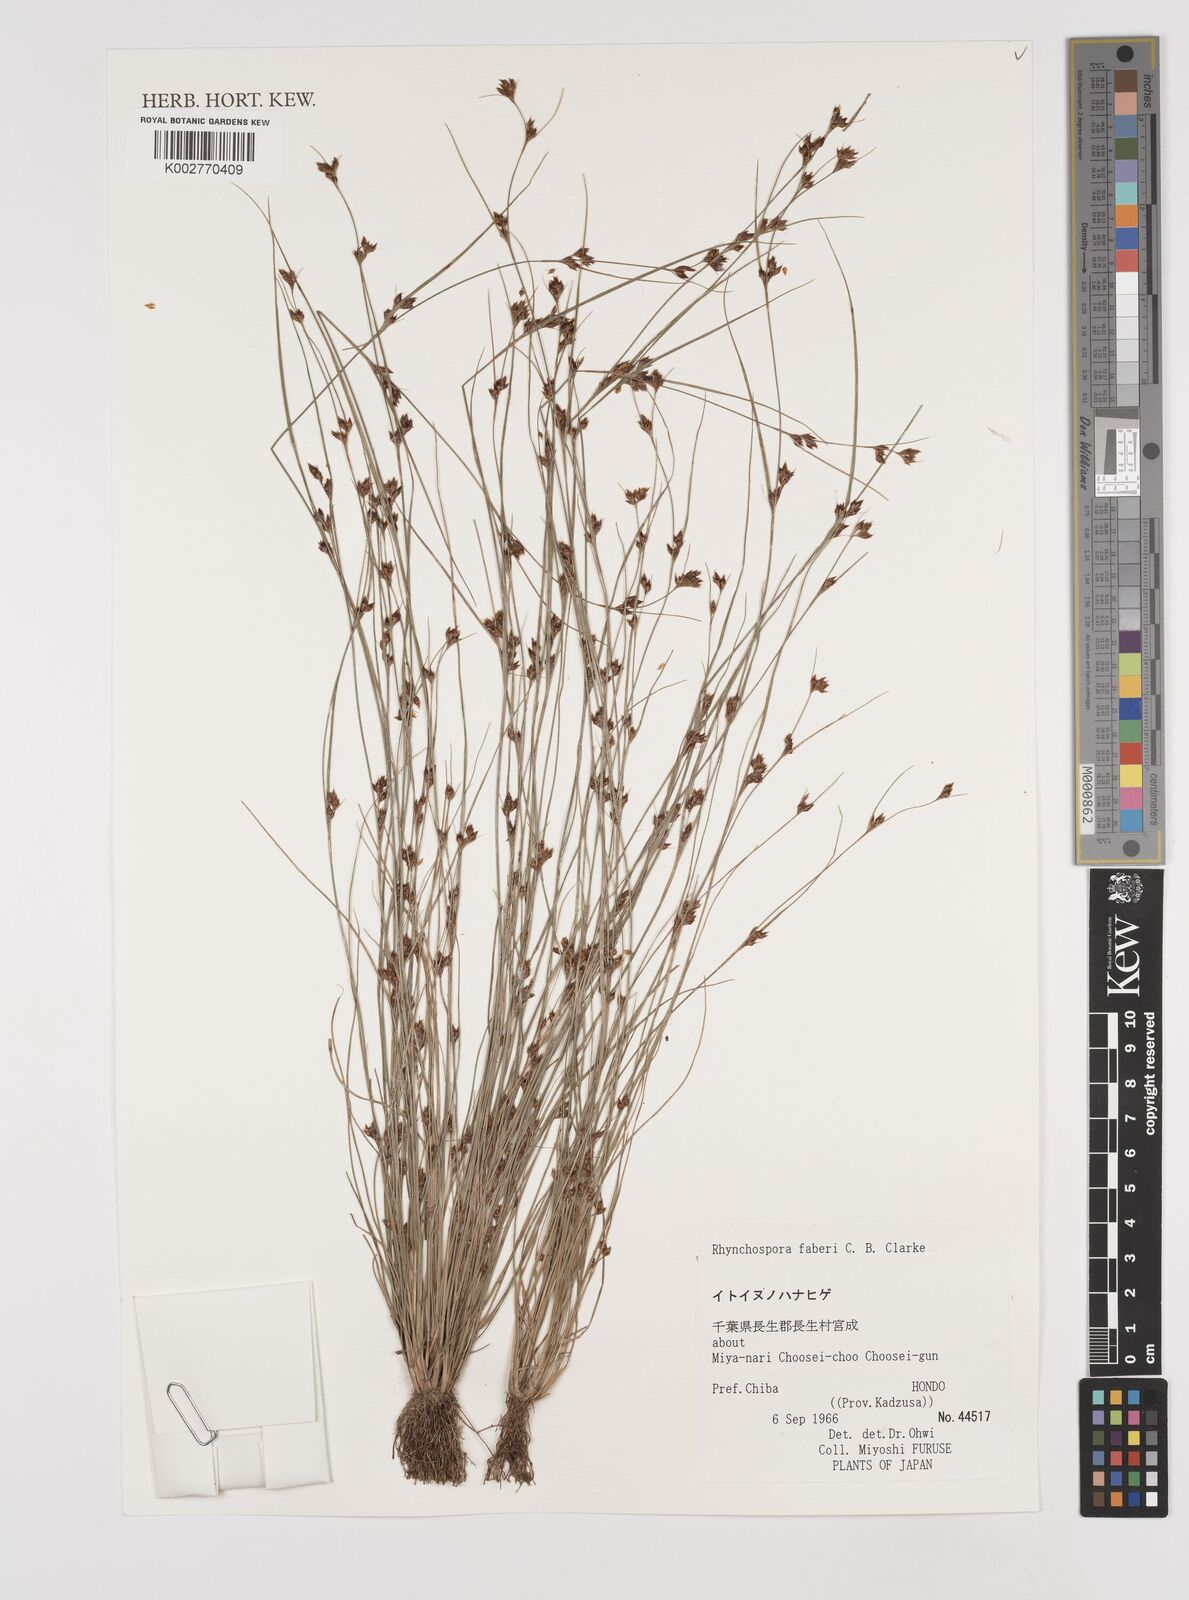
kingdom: Plantae
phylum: Tracheophyta
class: Liliopsida
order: Poales
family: Cyperaceae
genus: Rhynchospora
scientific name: Rhynchospora faberi
